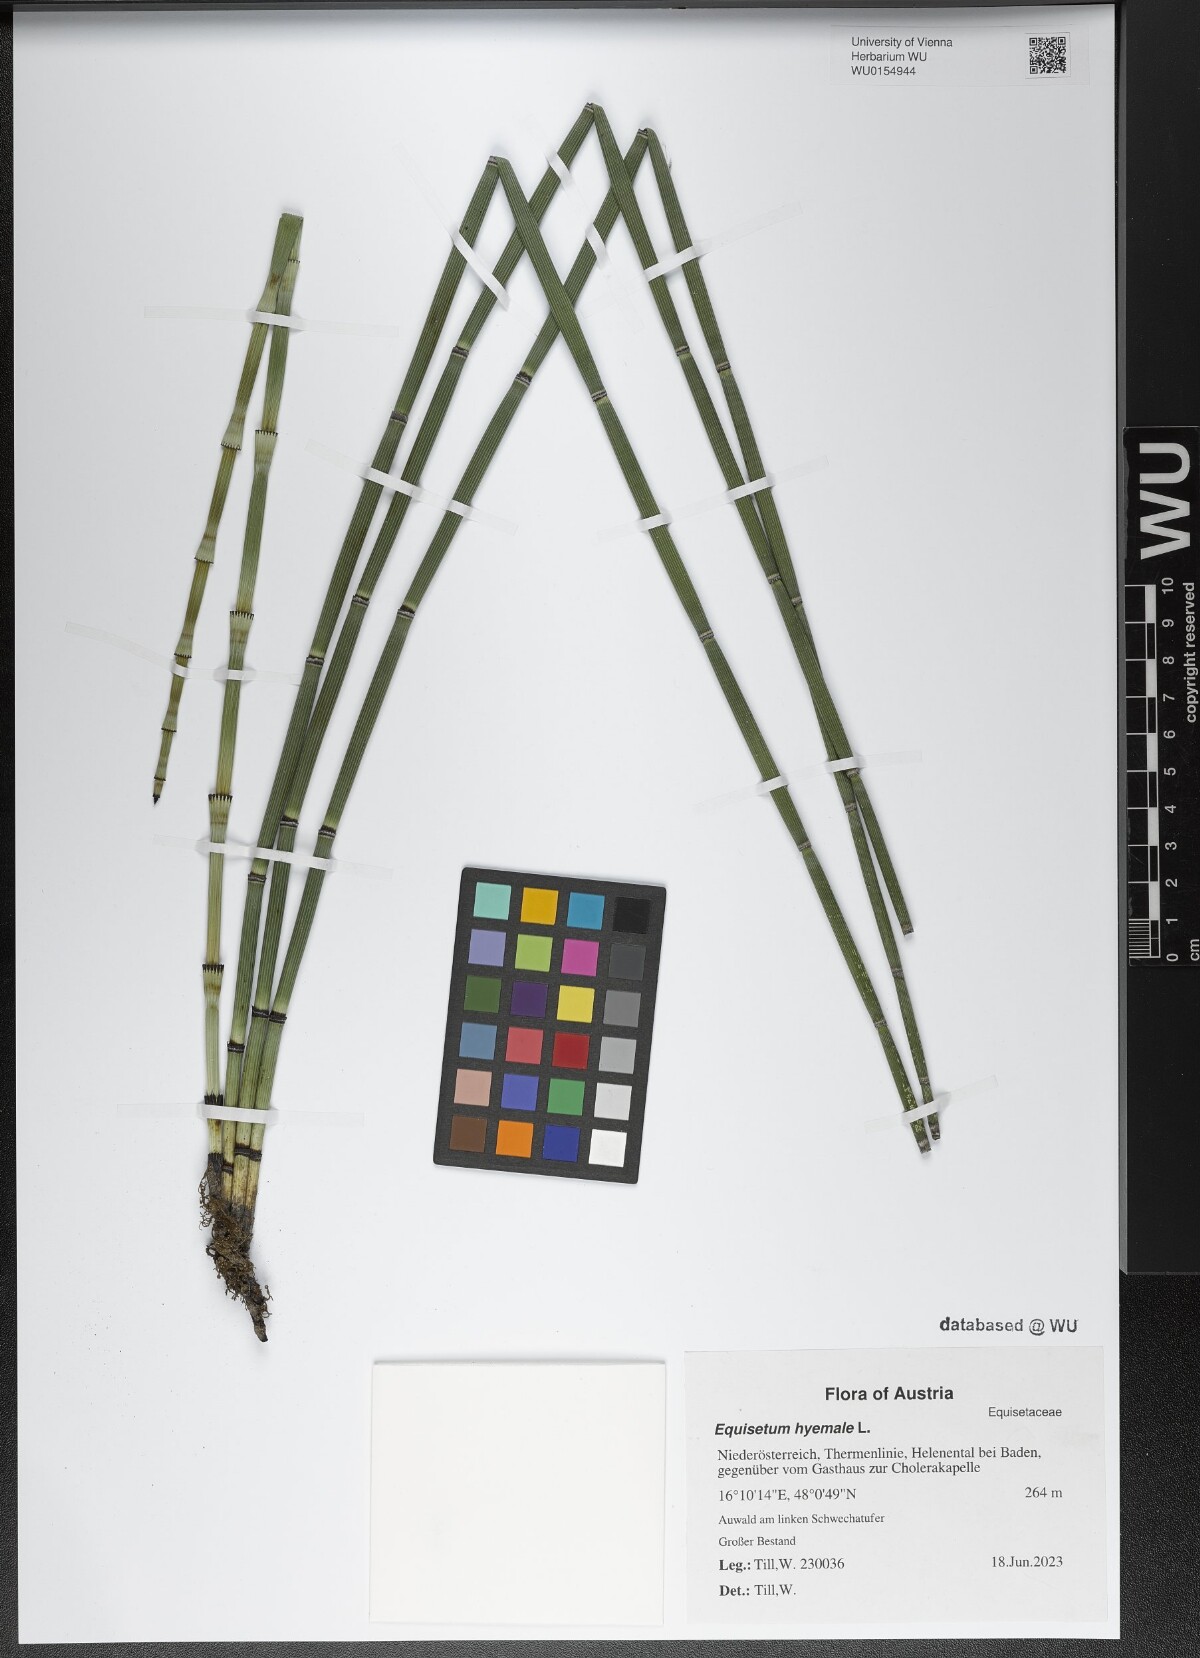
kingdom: Plantae
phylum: Tracheophyta
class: Polypodiopsida
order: Equisetales
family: Equisetaceae
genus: Equisetum
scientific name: Equisetum hyemale
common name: Rough horsetail
